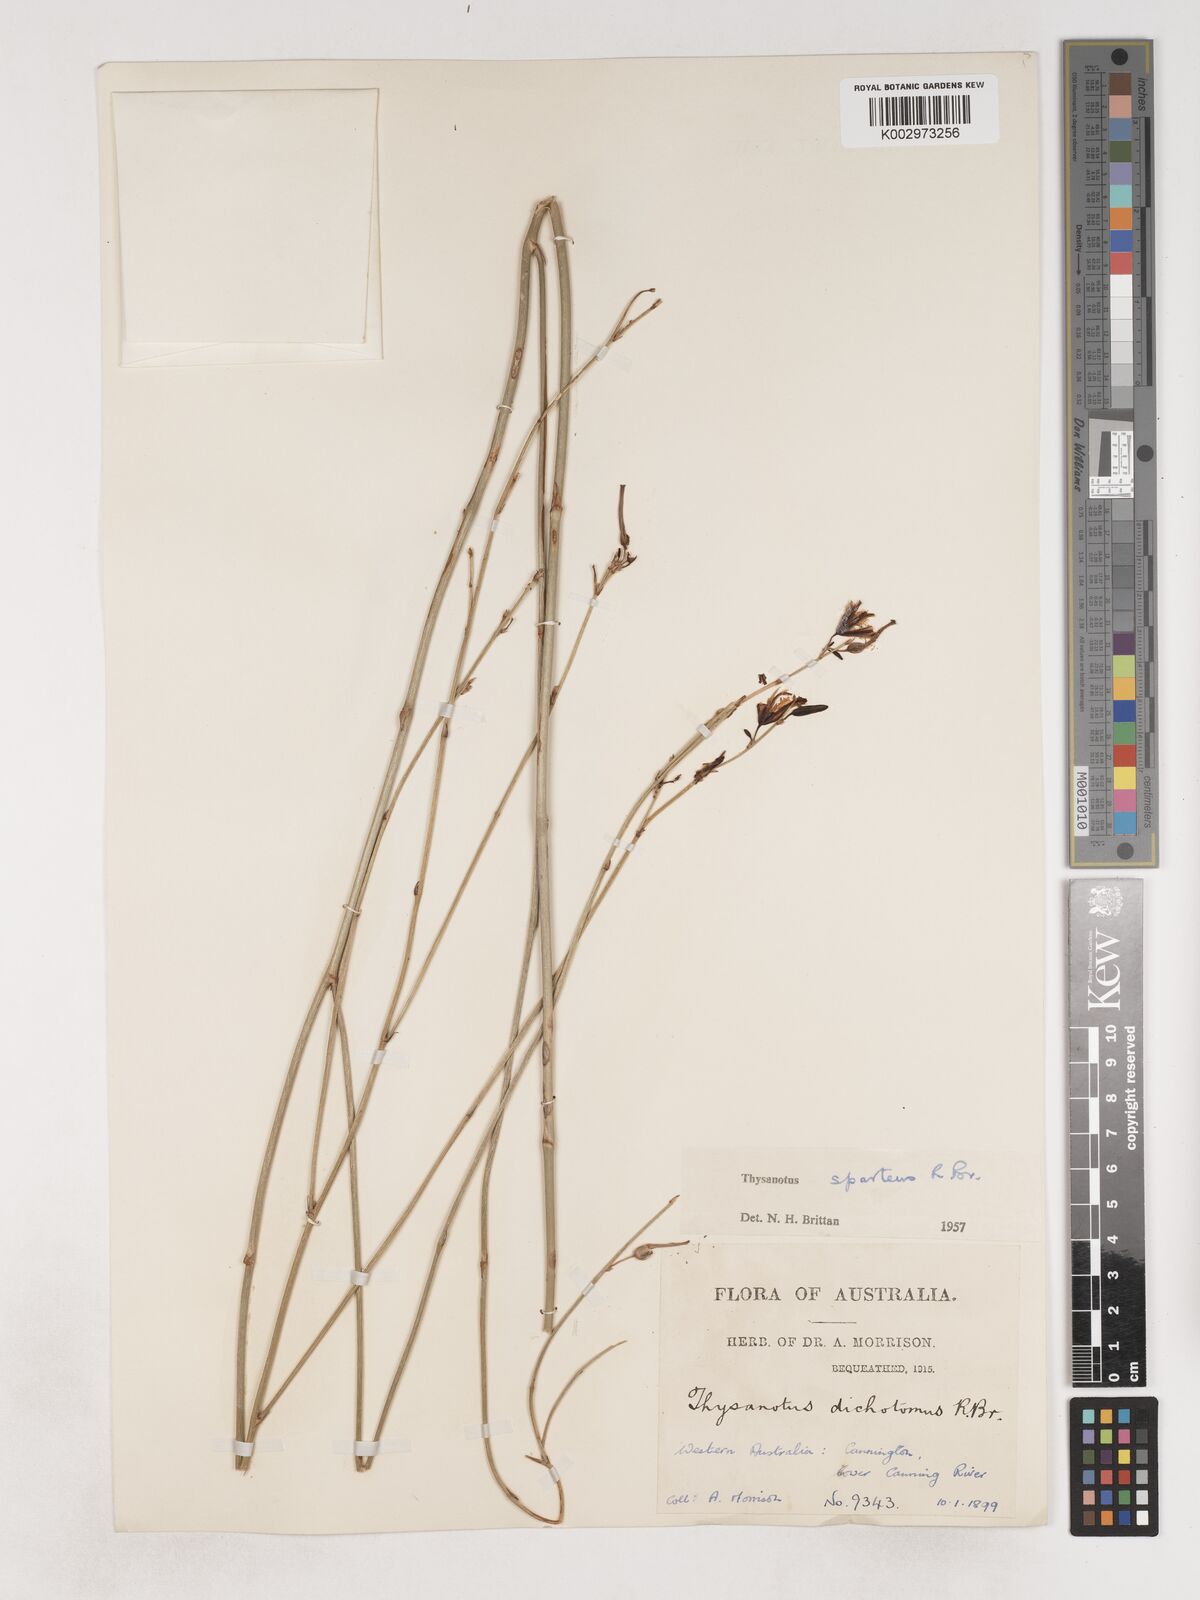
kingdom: Plantae
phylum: Tracheophyta
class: Liliopsida
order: Asparagales
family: Asparagaceae
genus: Thysanotus
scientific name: Thysanotus sparteus
